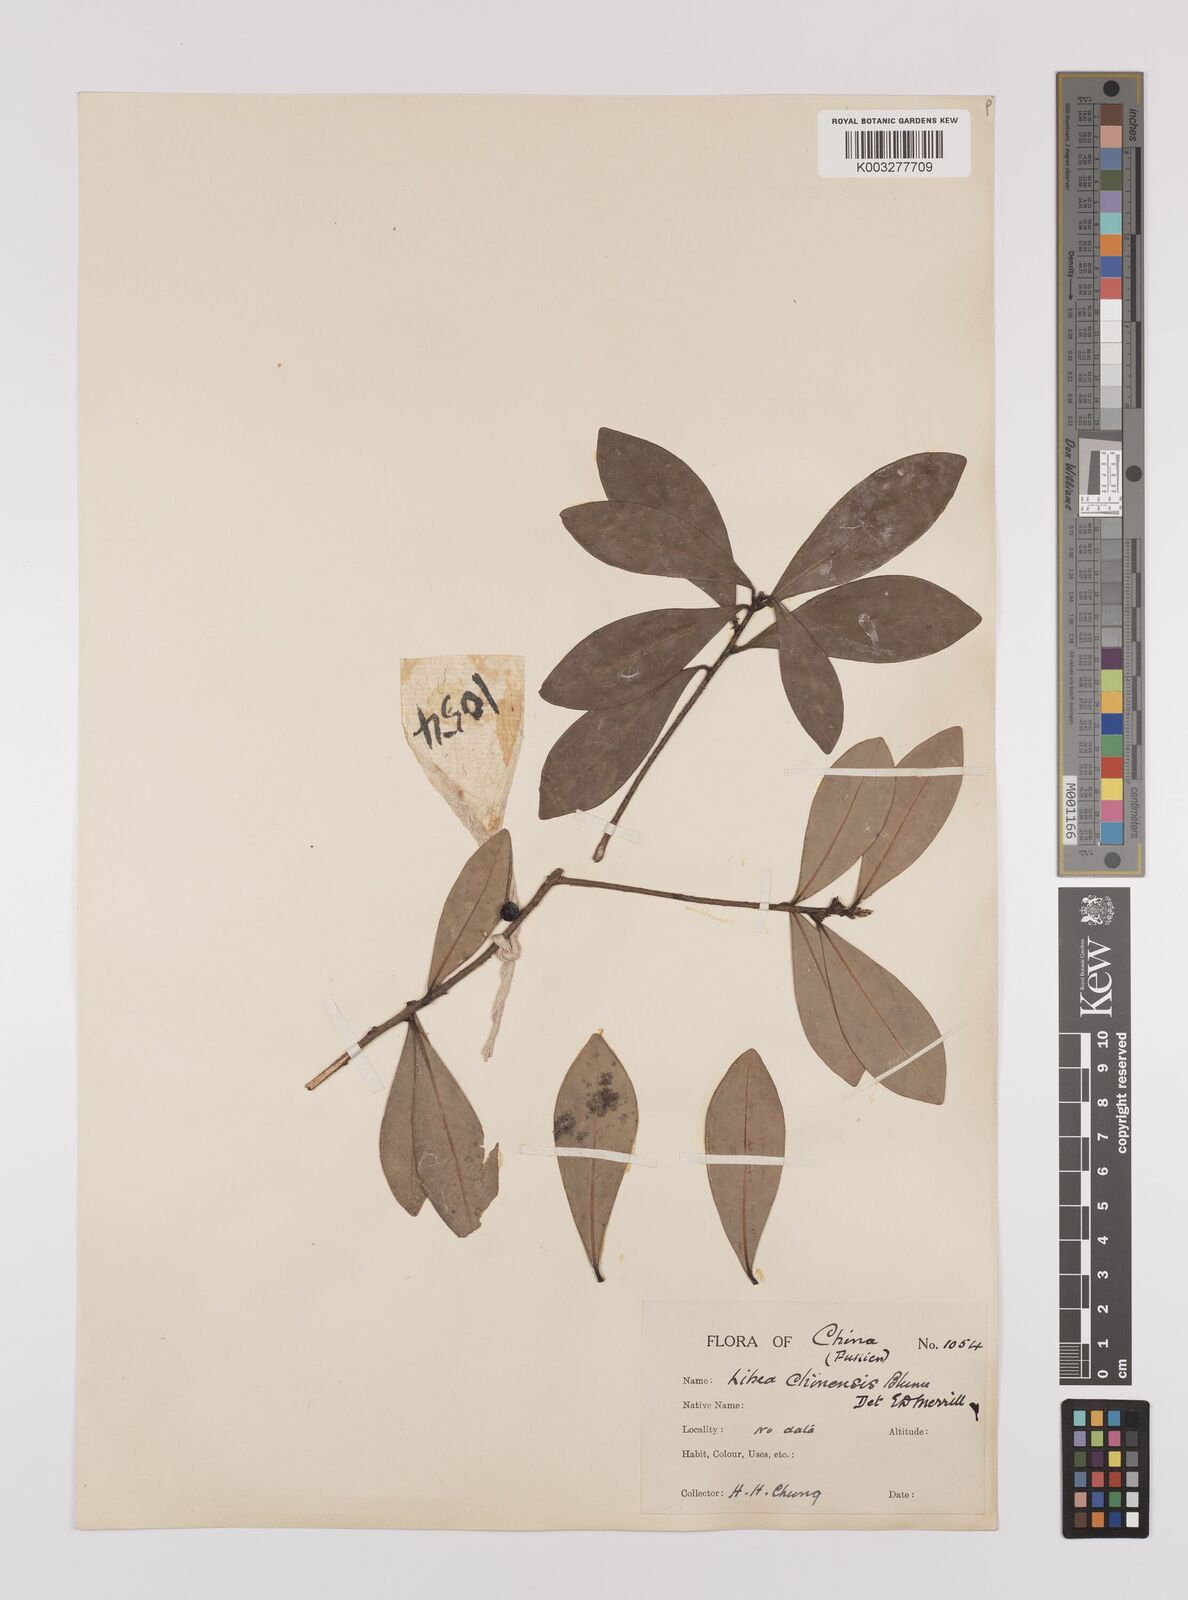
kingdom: Plantae
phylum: Tracheophyta
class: Magnoliopsida
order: Laurales
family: Lauraceae
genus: Litsea
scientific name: Litsea rotundifolia
